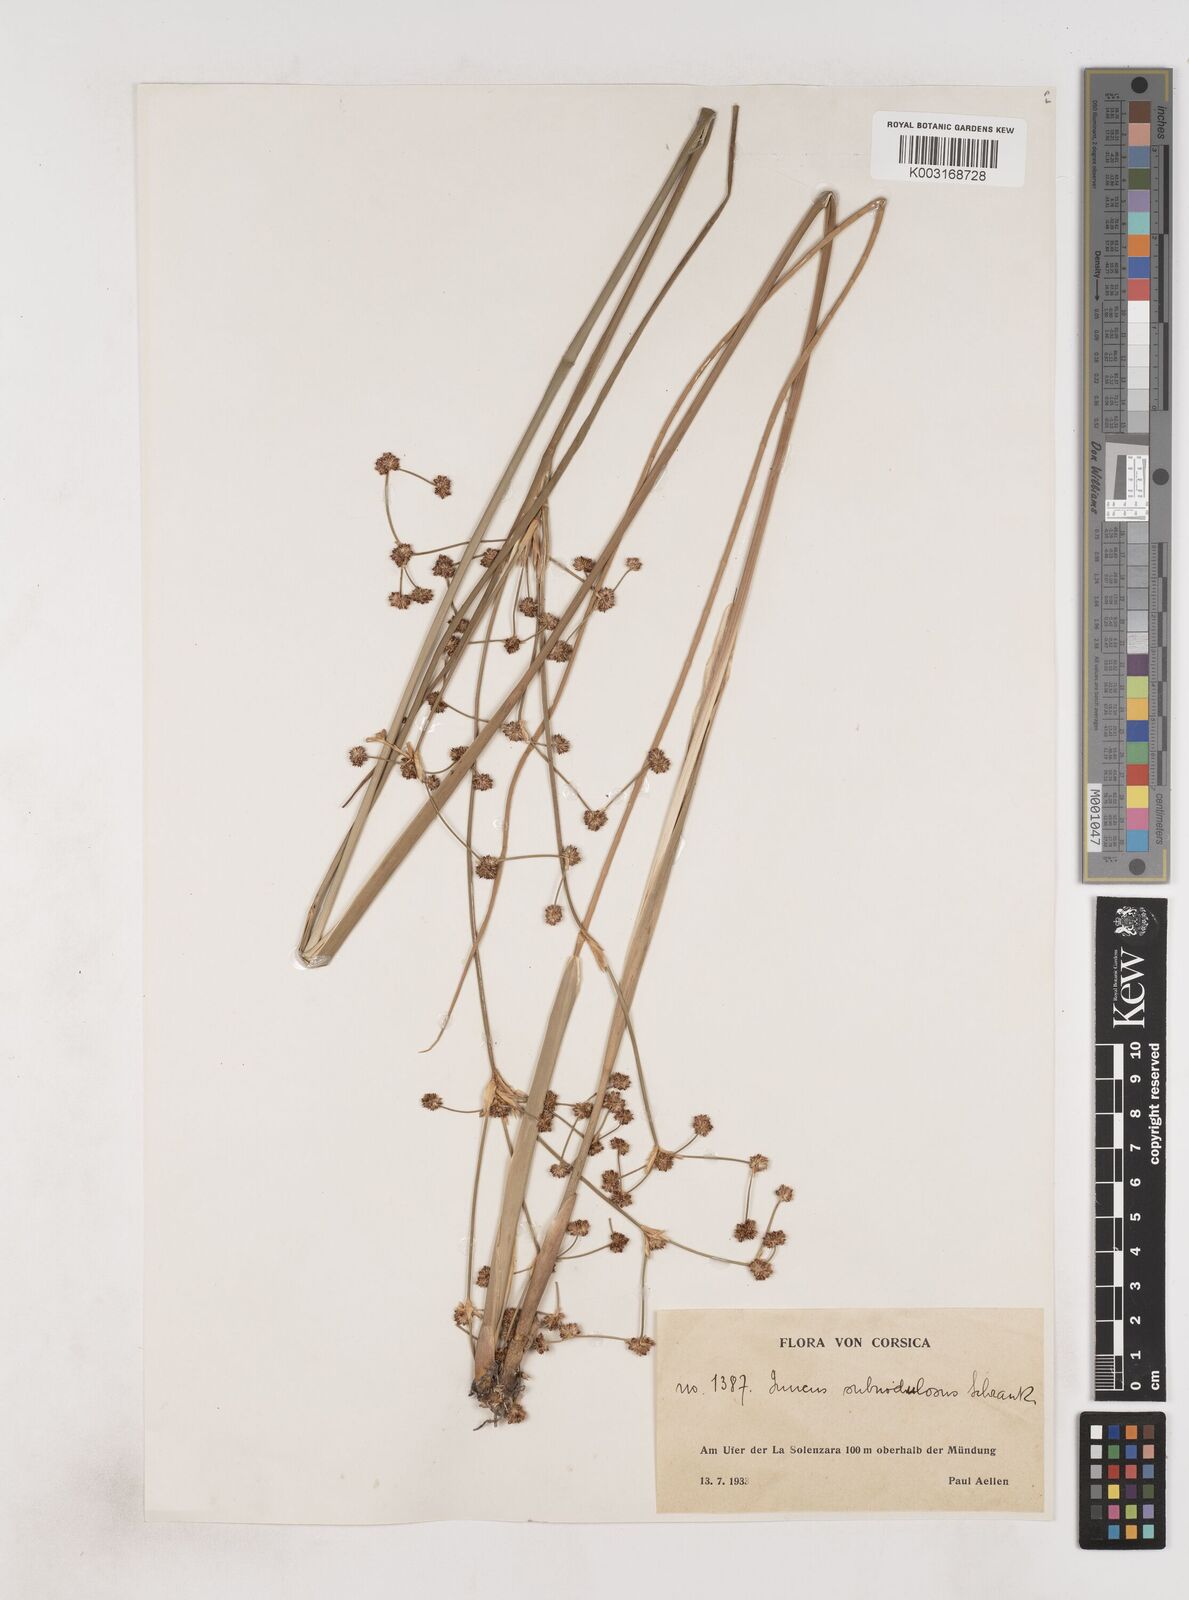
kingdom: Plantae
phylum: Tracheophyta
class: Liliopsida
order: Poales
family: Juncaceae
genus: Juncus
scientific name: Juncus subnodulosus
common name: Blunt-flowered rush
